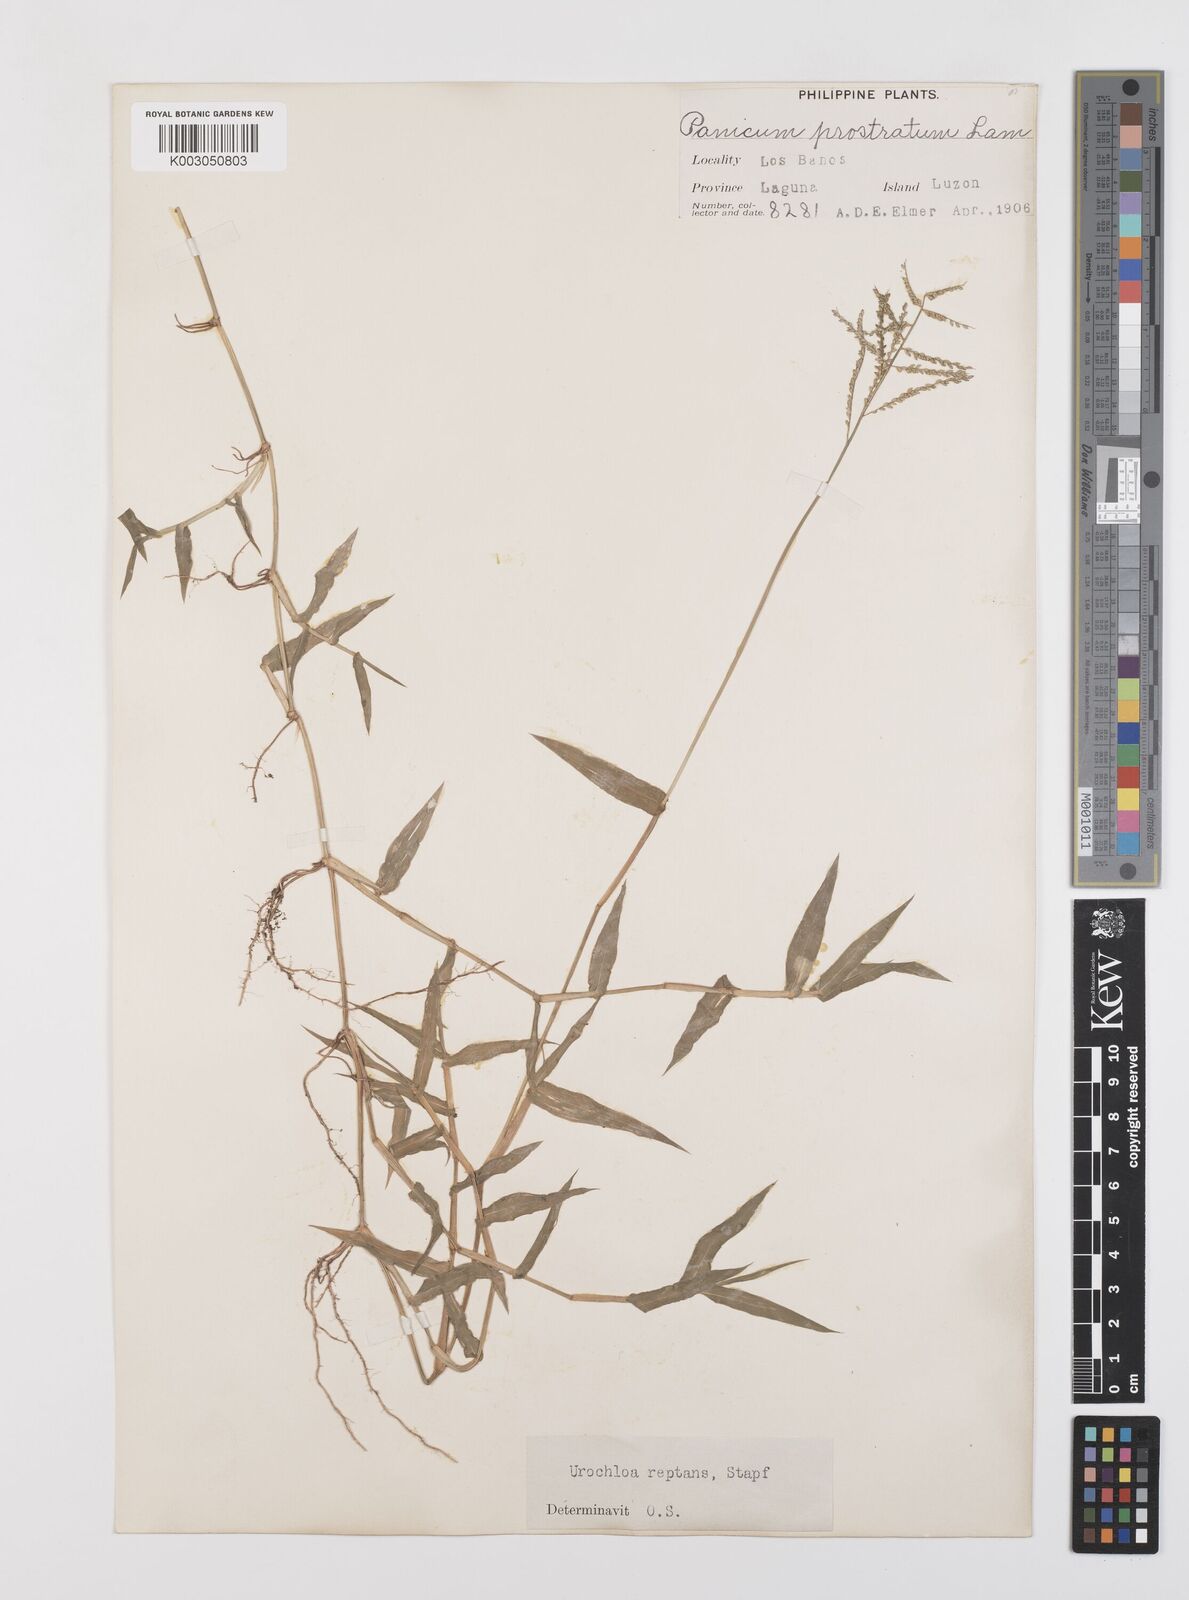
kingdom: Plantae
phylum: Tracheophyta
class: Liliopsida
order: Poales
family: Poaceae
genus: Urochloa
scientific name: Urochloa reptans
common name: Sprawling signalgrass
